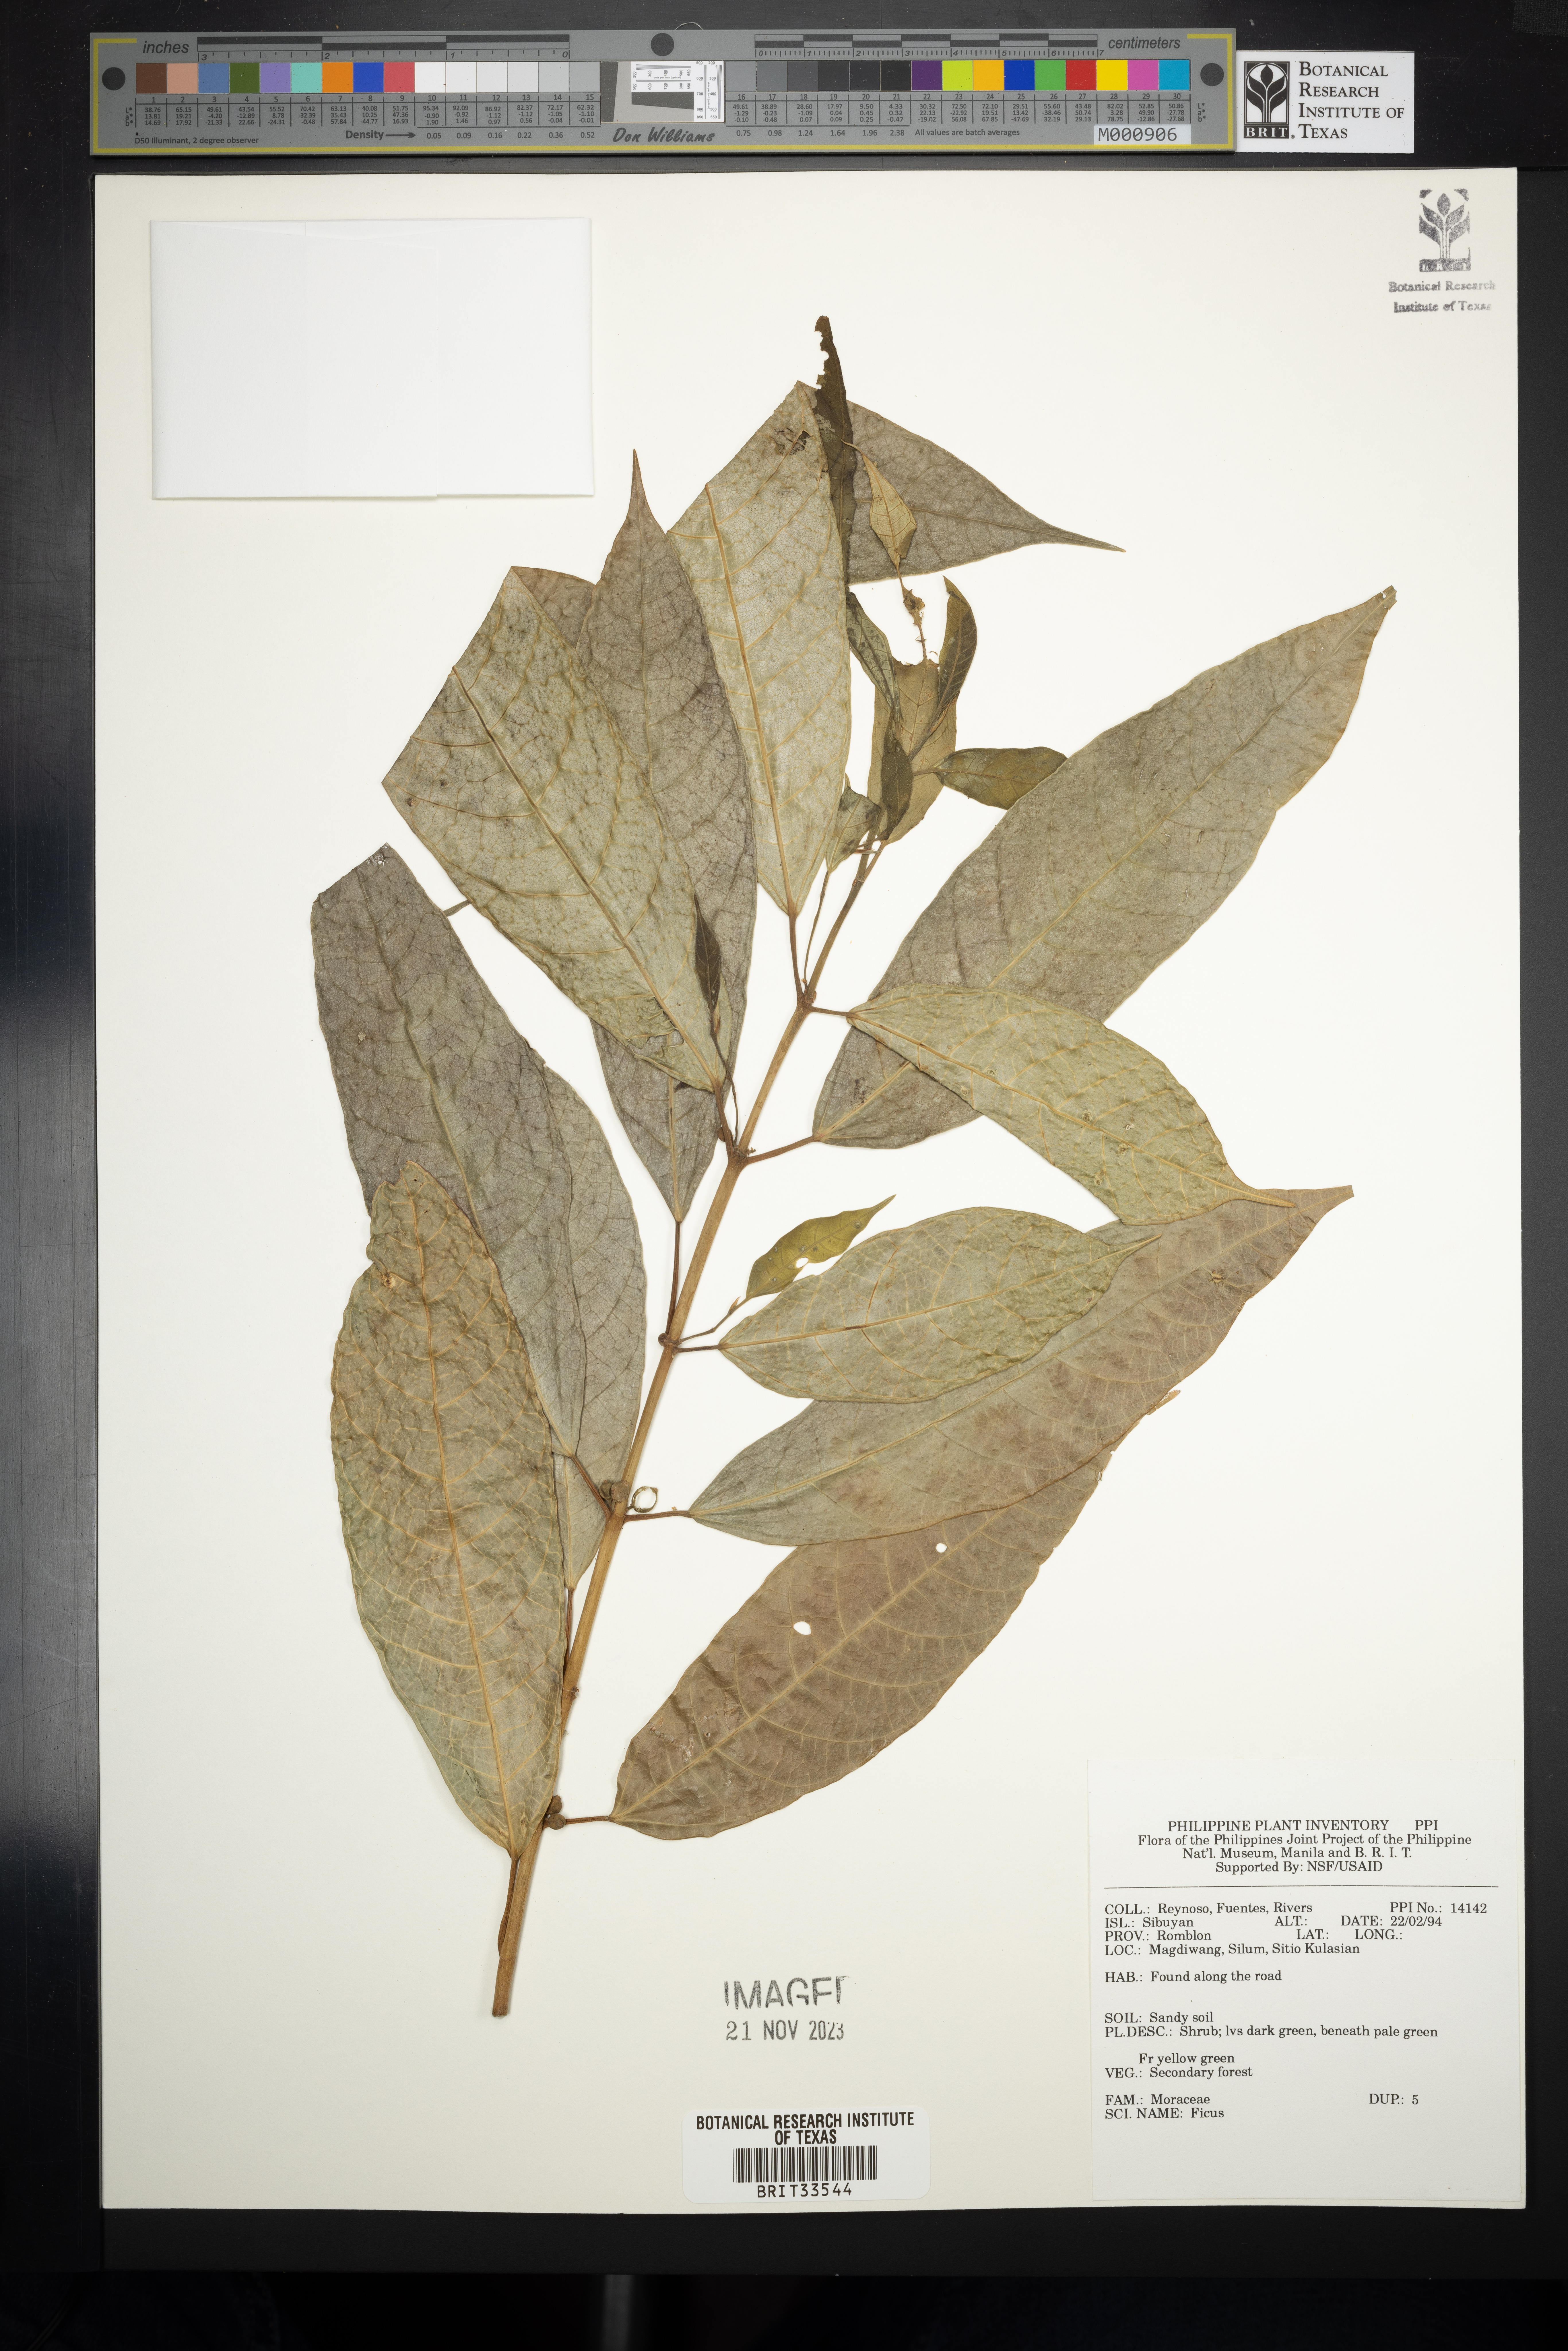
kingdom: Plantae
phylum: Tracheophyta
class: Magnoliopsida
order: Rosales
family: Moraceae
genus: Ficus
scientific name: Ficus
